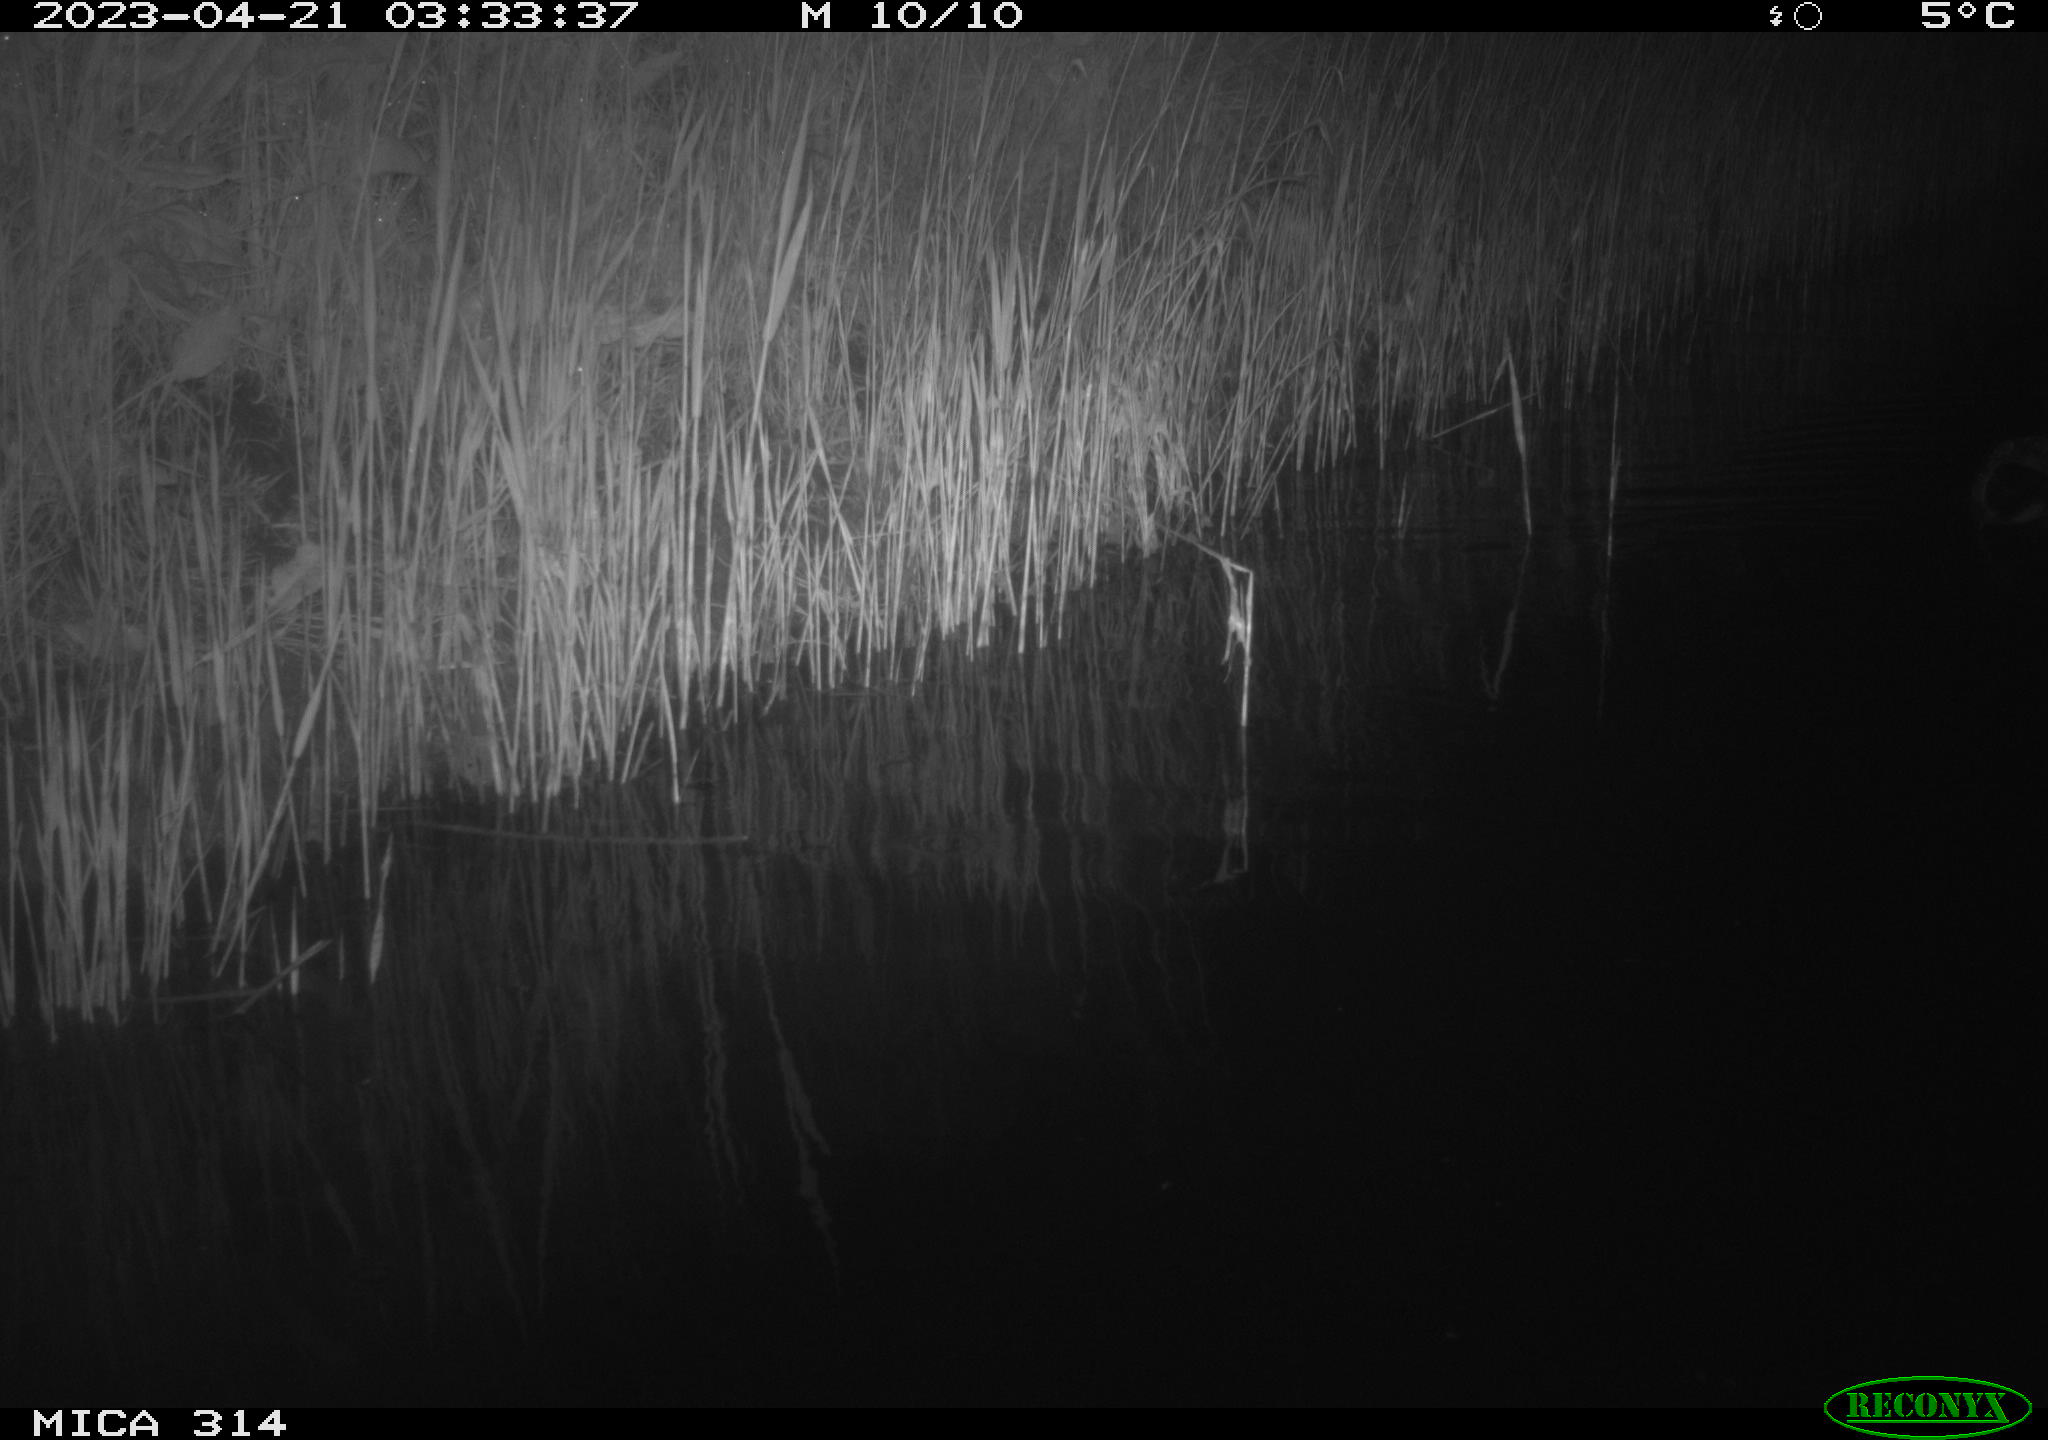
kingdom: Animalia
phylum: Chordata
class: Aves
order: Anseriformes
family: Anatidae
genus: Anas
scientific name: Anas
